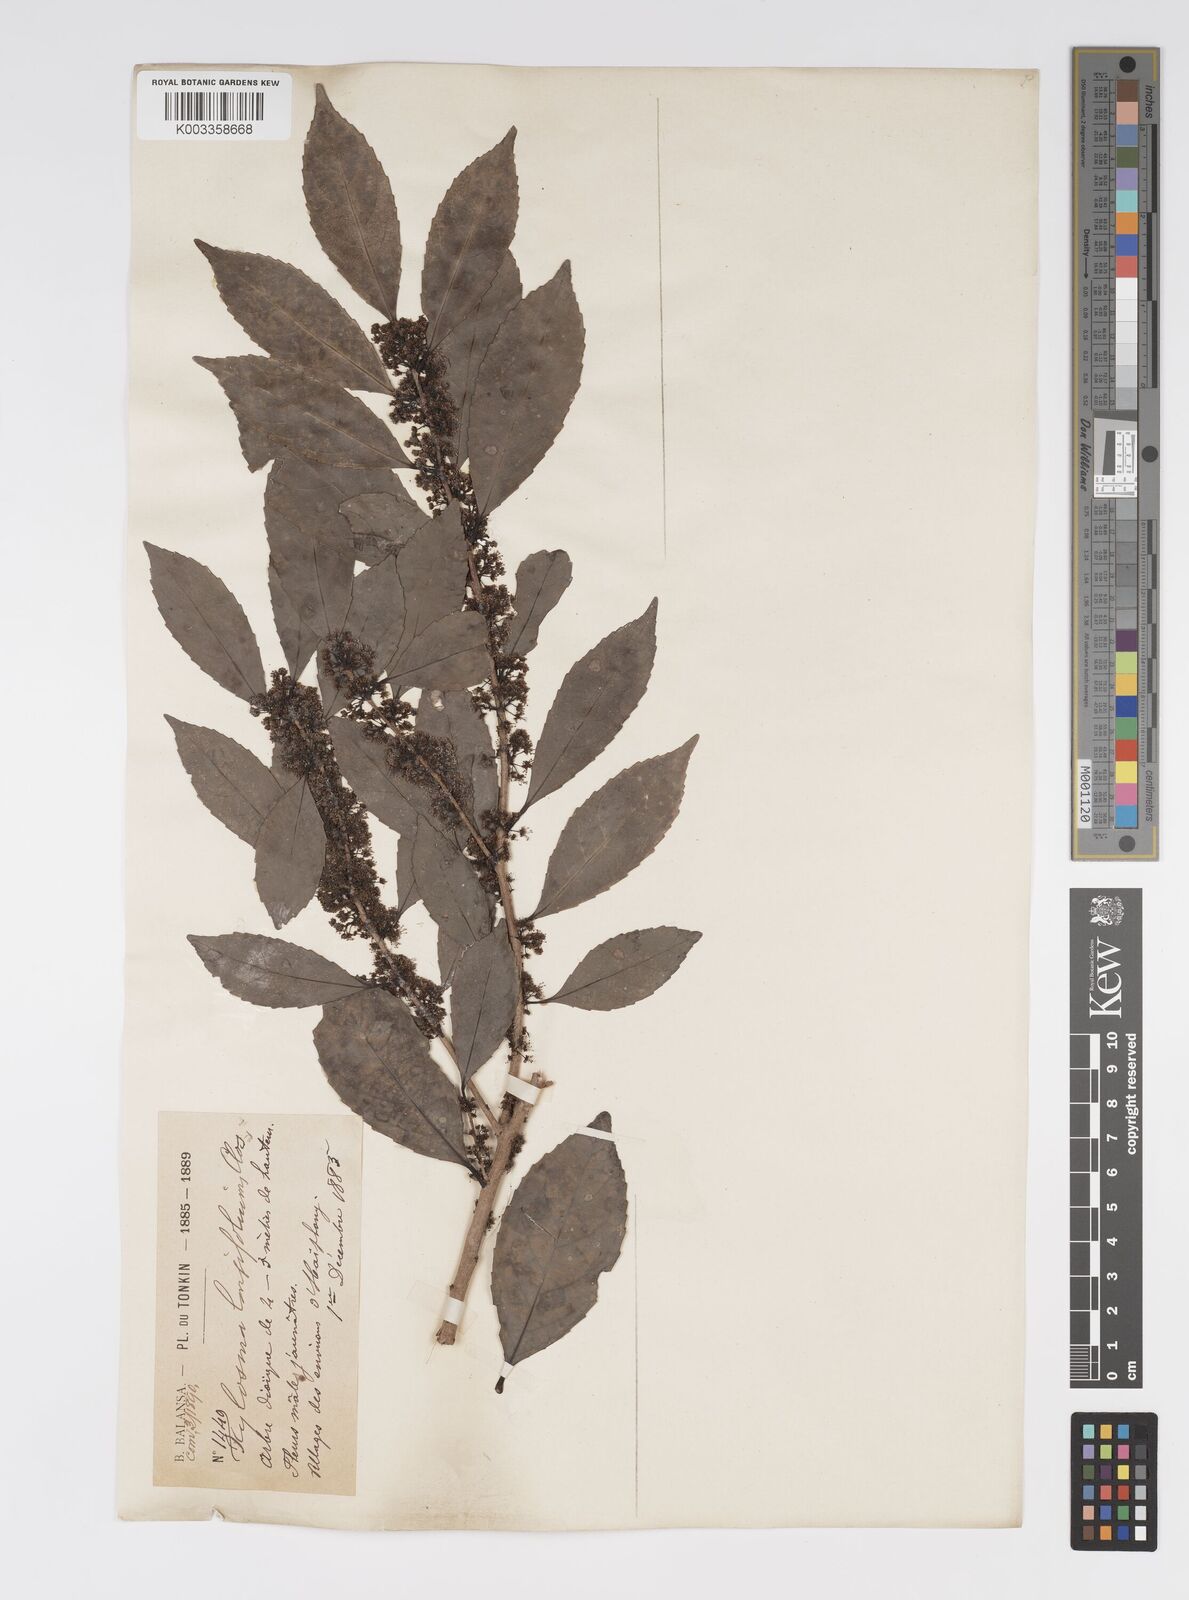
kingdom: Plantae
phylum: Tracheophyta
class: Magnoliopsida
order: Malpighiales
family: Salicaceae
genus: Xylosma
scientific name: Xylosma longifolia
